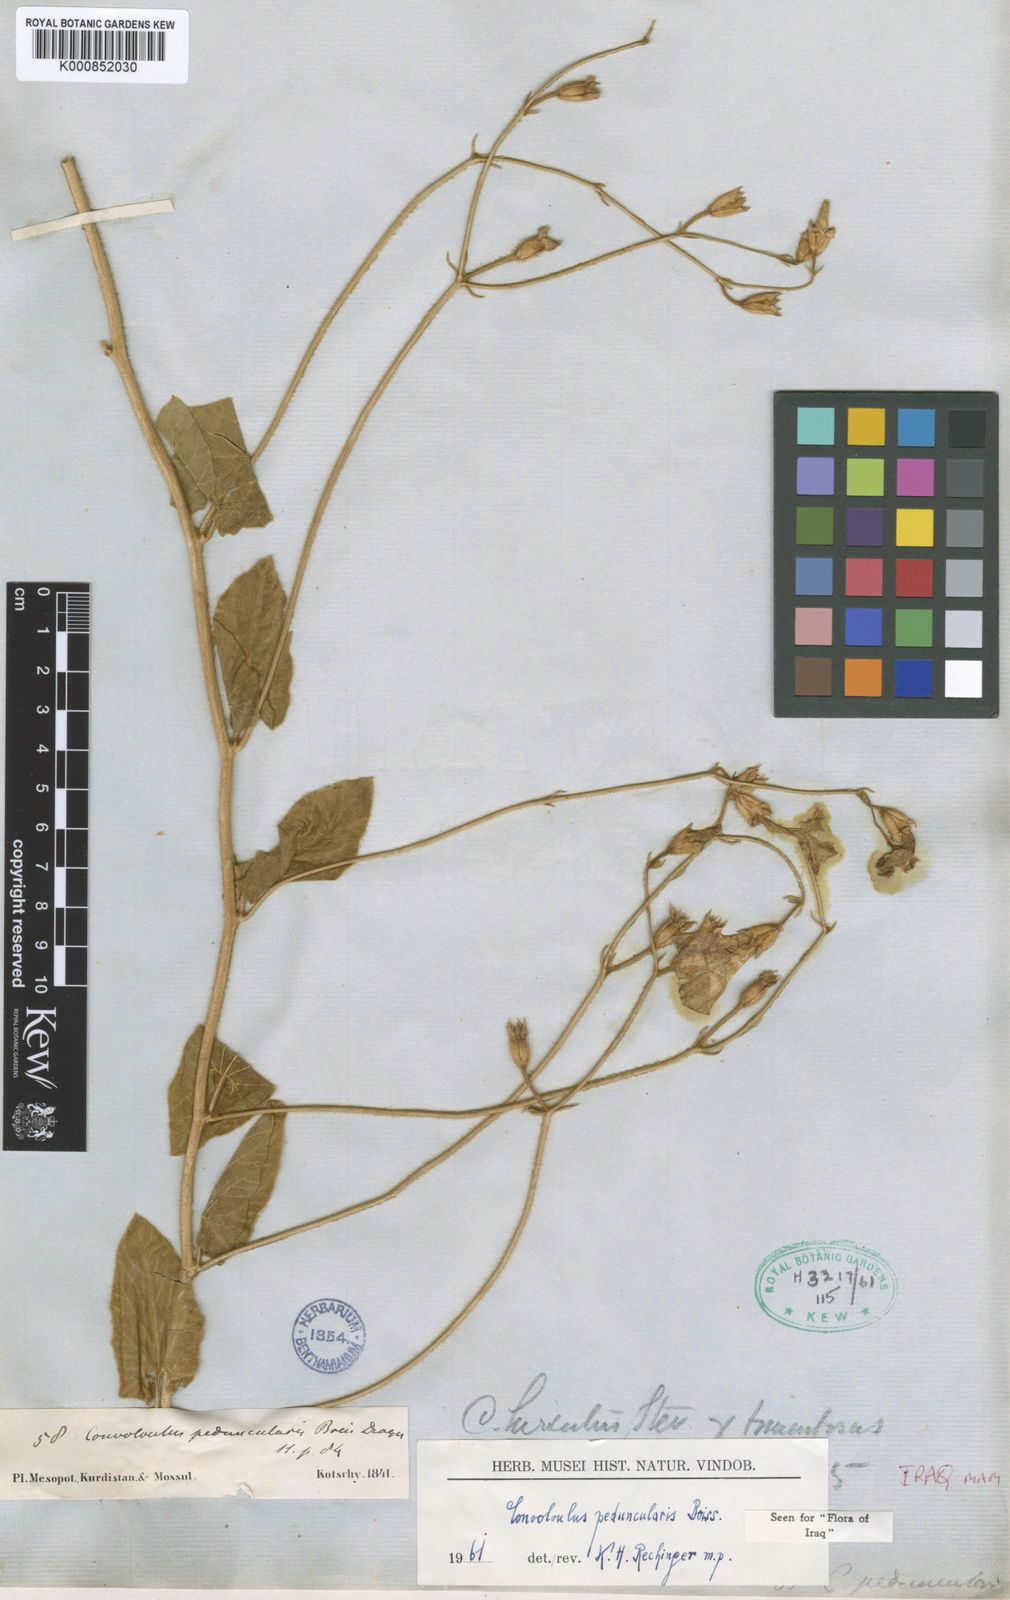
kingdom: Plantae
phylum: Tracheophyta
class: Magnoliopsida
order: Solanales
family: Convolvulaceae
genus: Convolvulus
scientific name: Convolvulus betonicifolius
